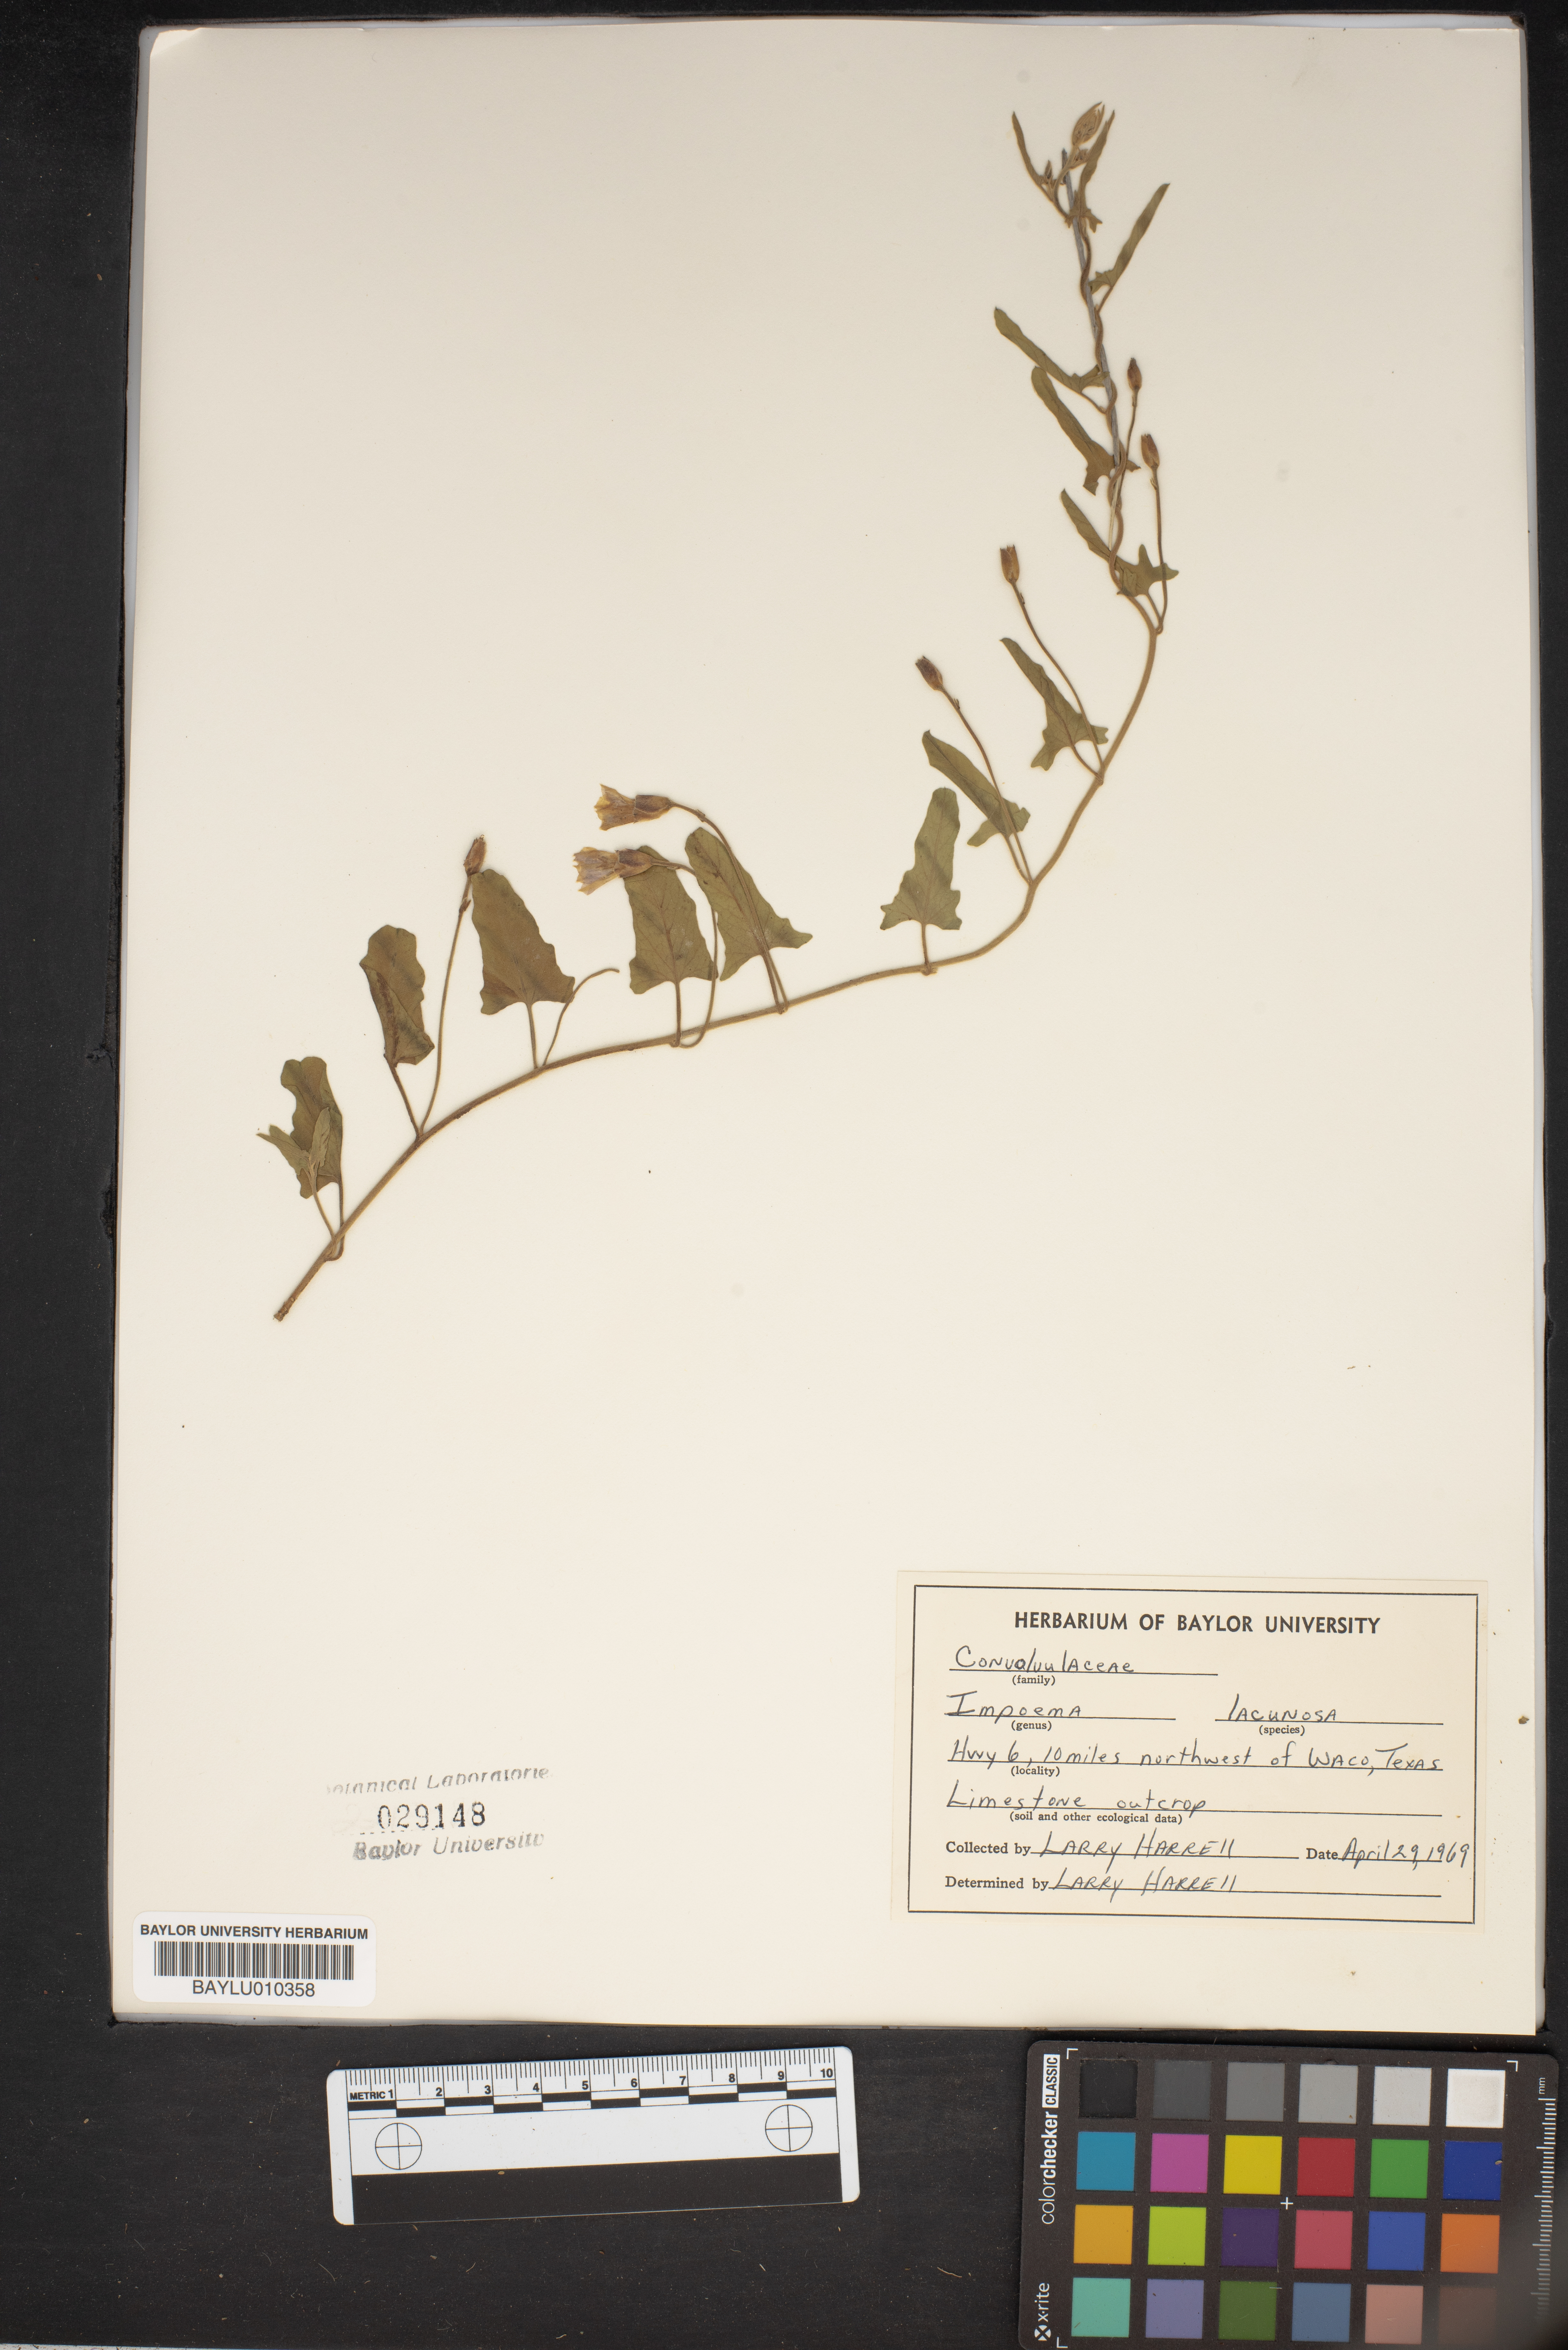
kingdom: Plantae
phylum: Tracheophyta
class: Magnoliopsida
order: Solanales
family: Convolvulaceae
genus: Ipomoea
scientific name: Ipomoea lacunosa
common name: White morning-glory
